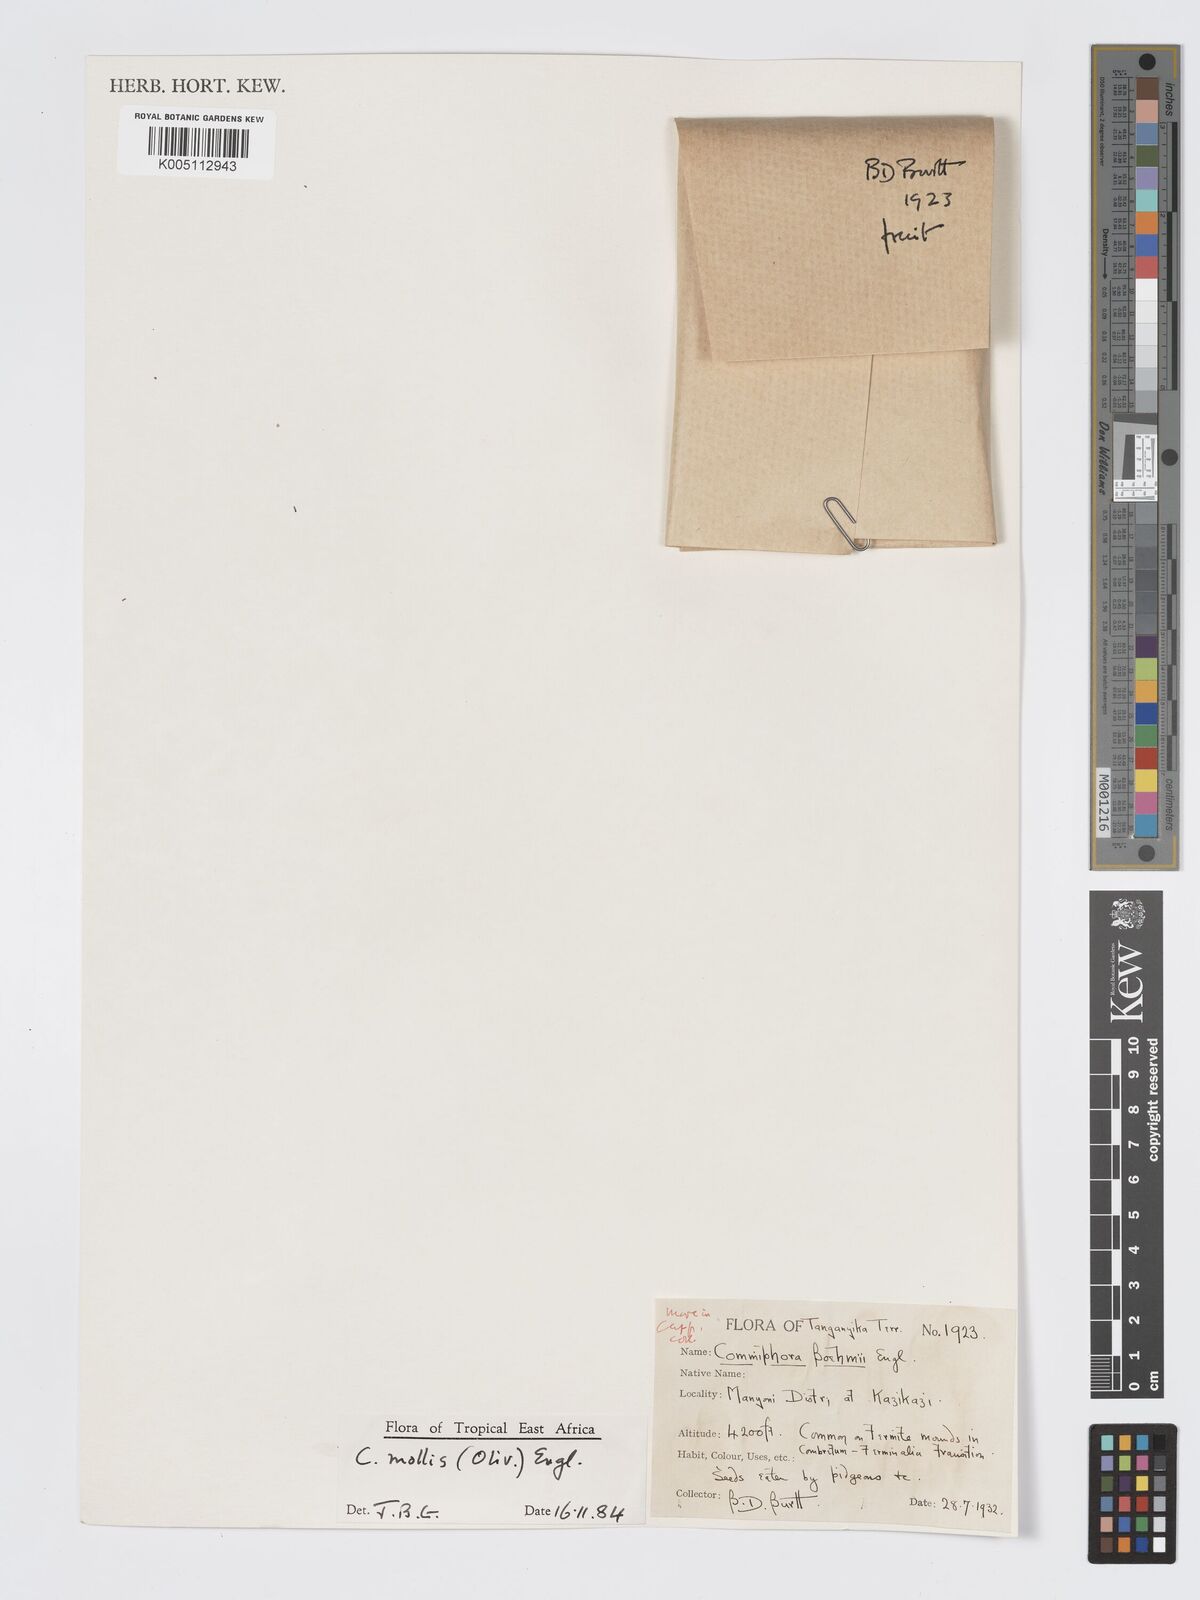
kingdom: Plantae
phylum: Tracheophyta
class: Magnoliopsida
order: Sapindales
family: Burseraceae
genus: Commiphora
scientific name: Commiphora
